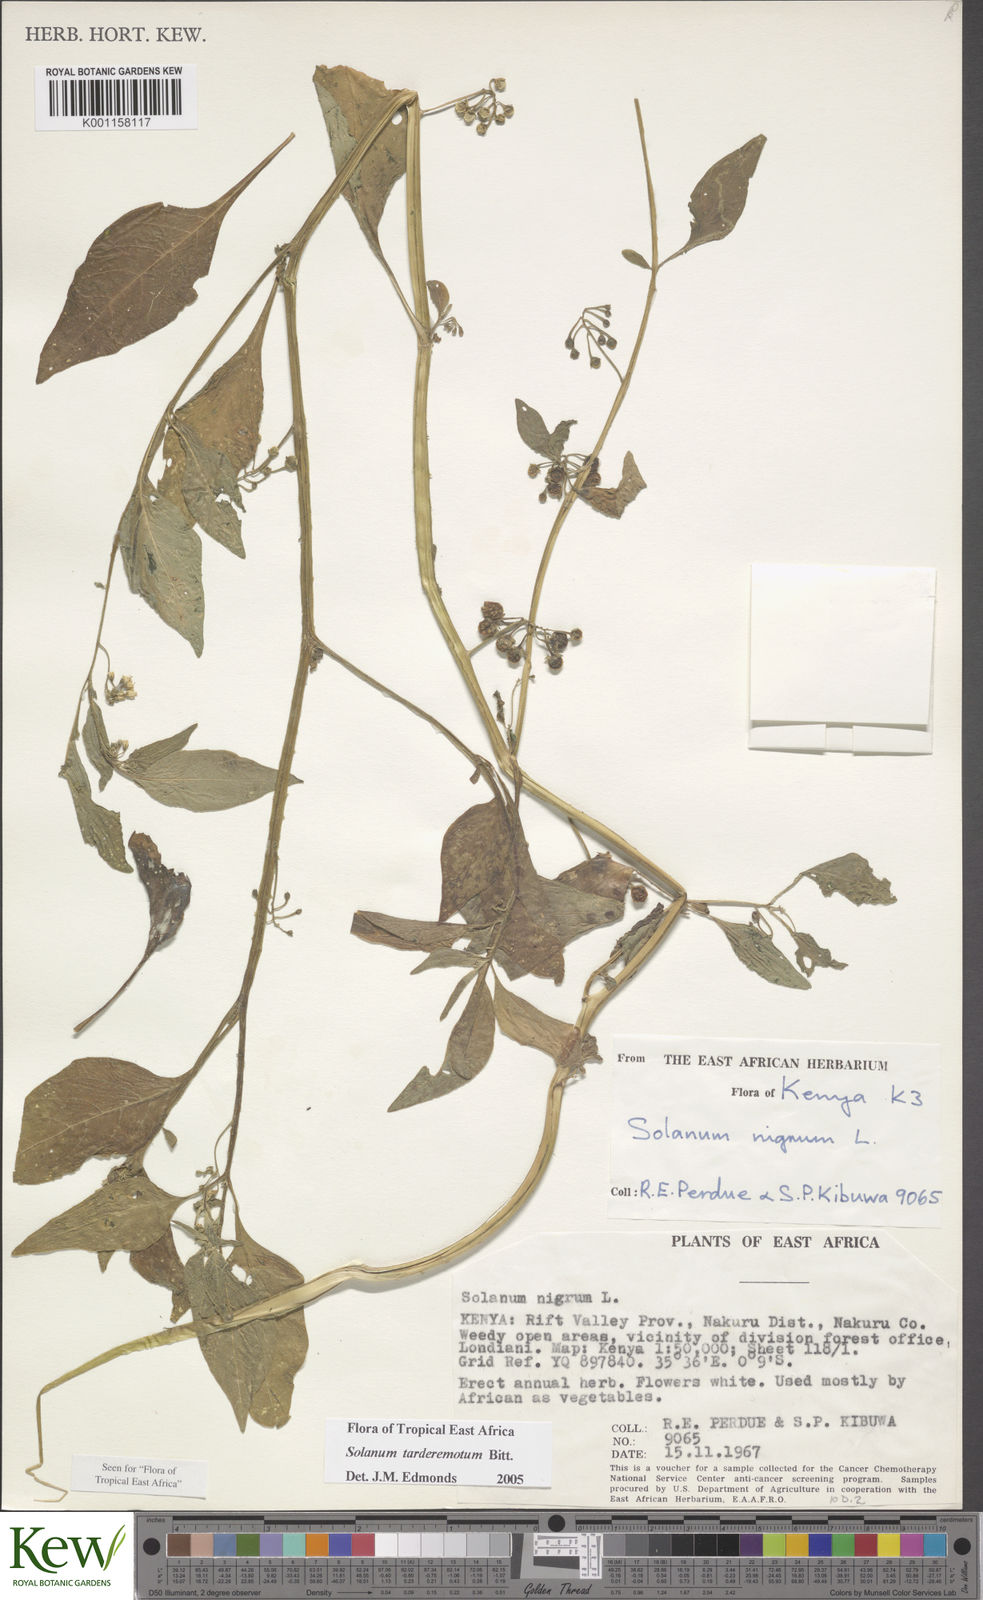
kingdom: Plantae
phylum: Tracheophyta
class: Magnoliopsida
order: Solanales
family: Solanaceae
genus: Solanum
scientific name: Solanum tarderemotum
